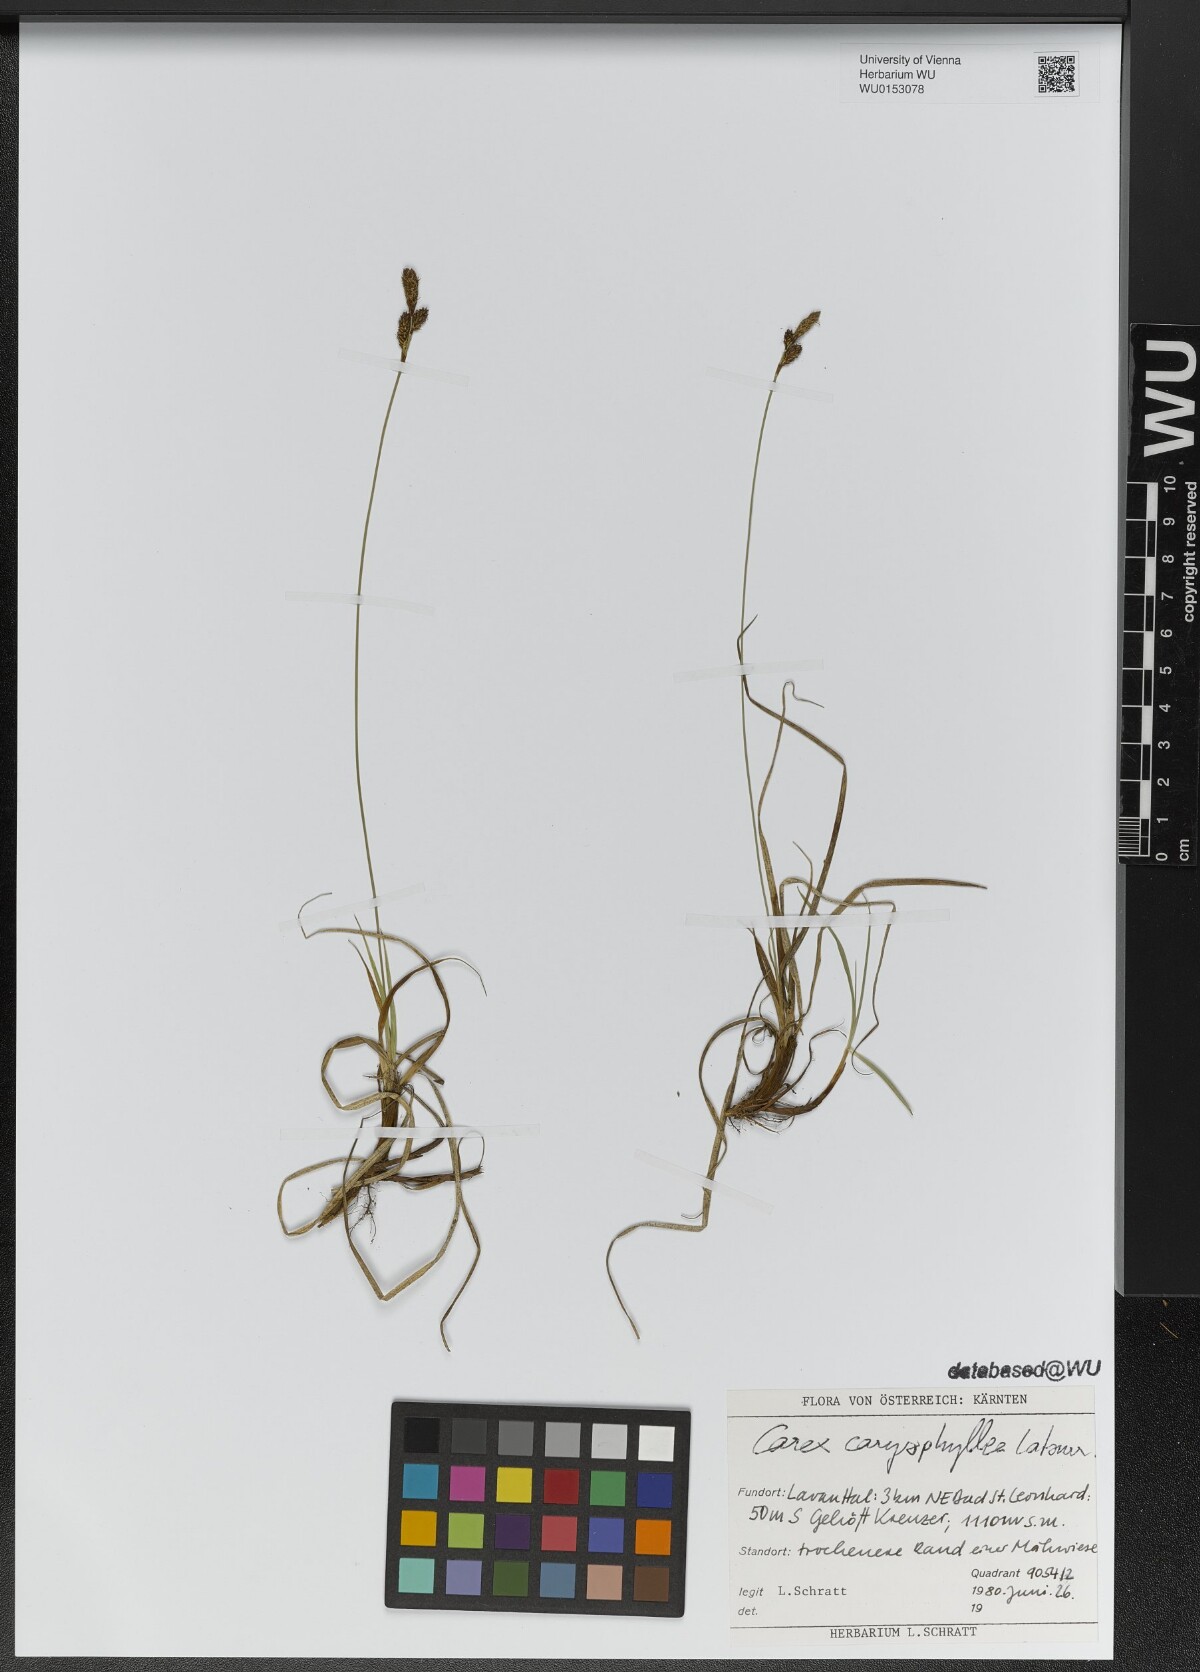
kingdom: Plantae
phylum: Tracheophyta
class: Liliopsida
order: Poales
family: Cyperaceae
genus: Carex
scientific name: Carex caryophyllea
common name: Spring sedge
